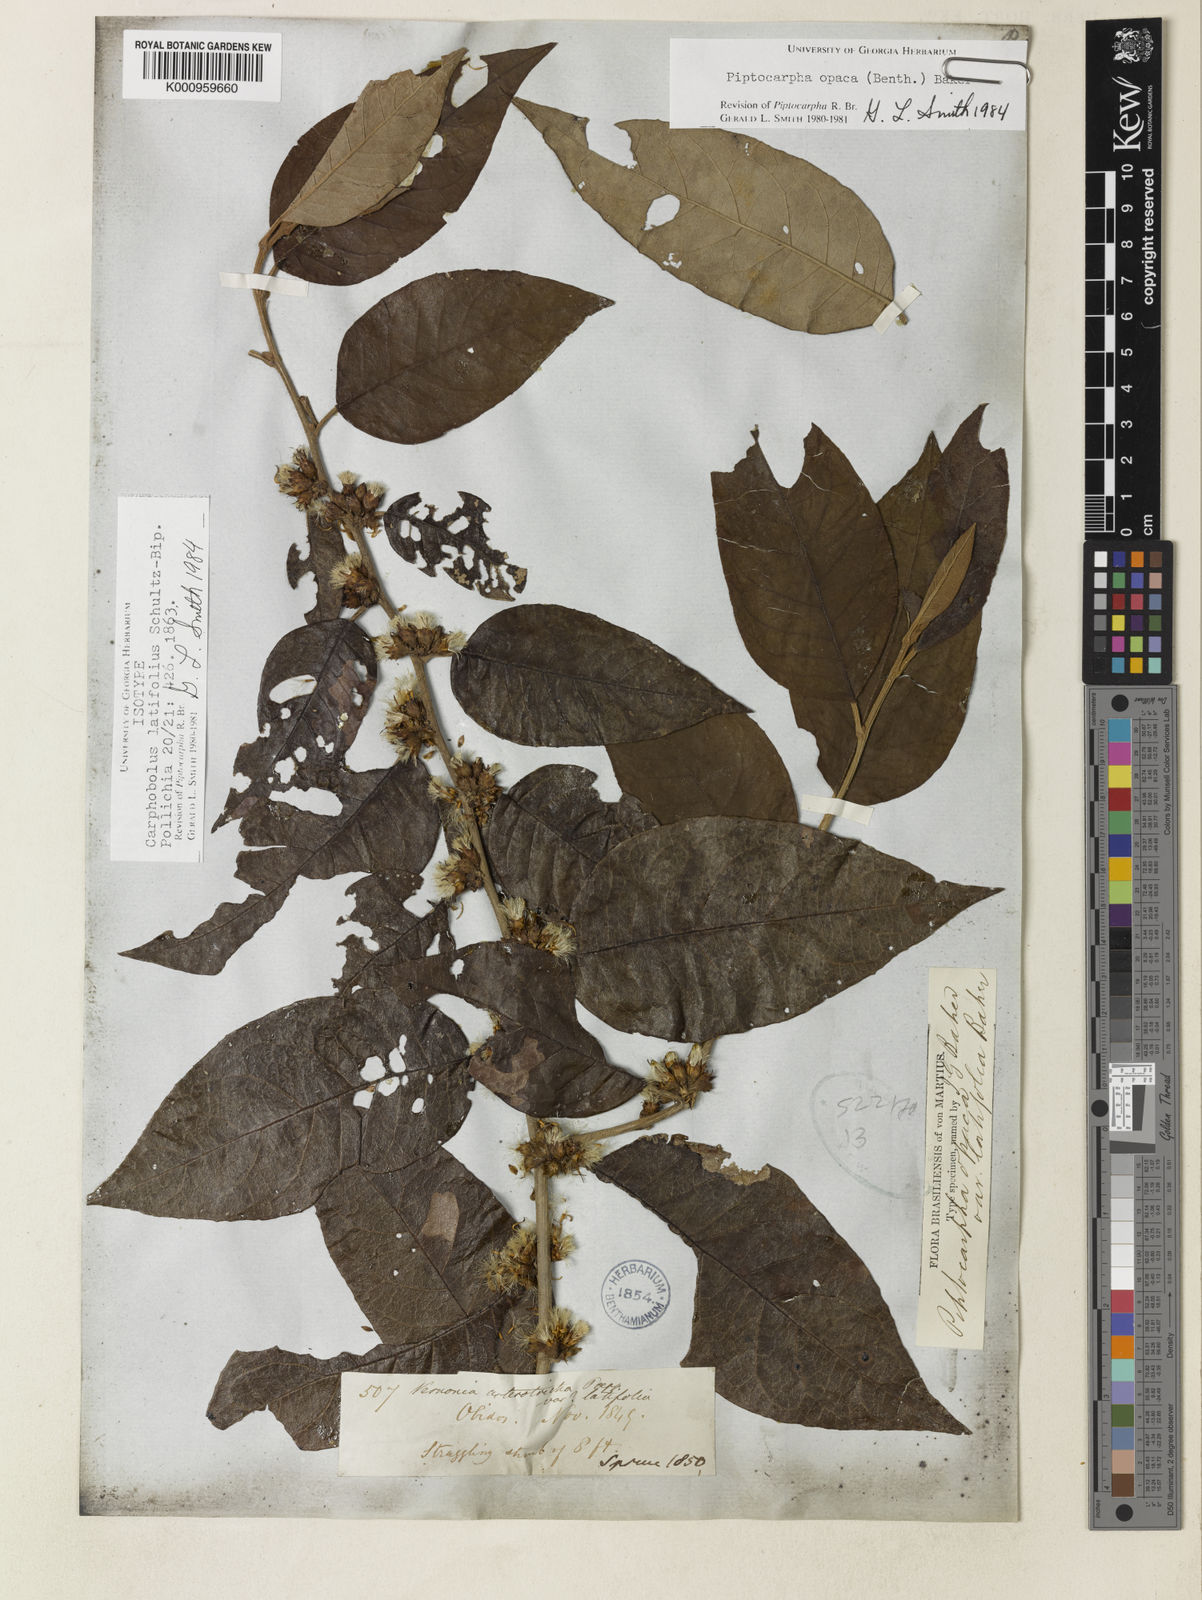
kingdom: Plantae
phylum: Tracheophyta
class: Magnoliopsida
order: Asterales
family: Asteraceae
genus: Piptocarpha
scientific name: Piptocarpha opaca
